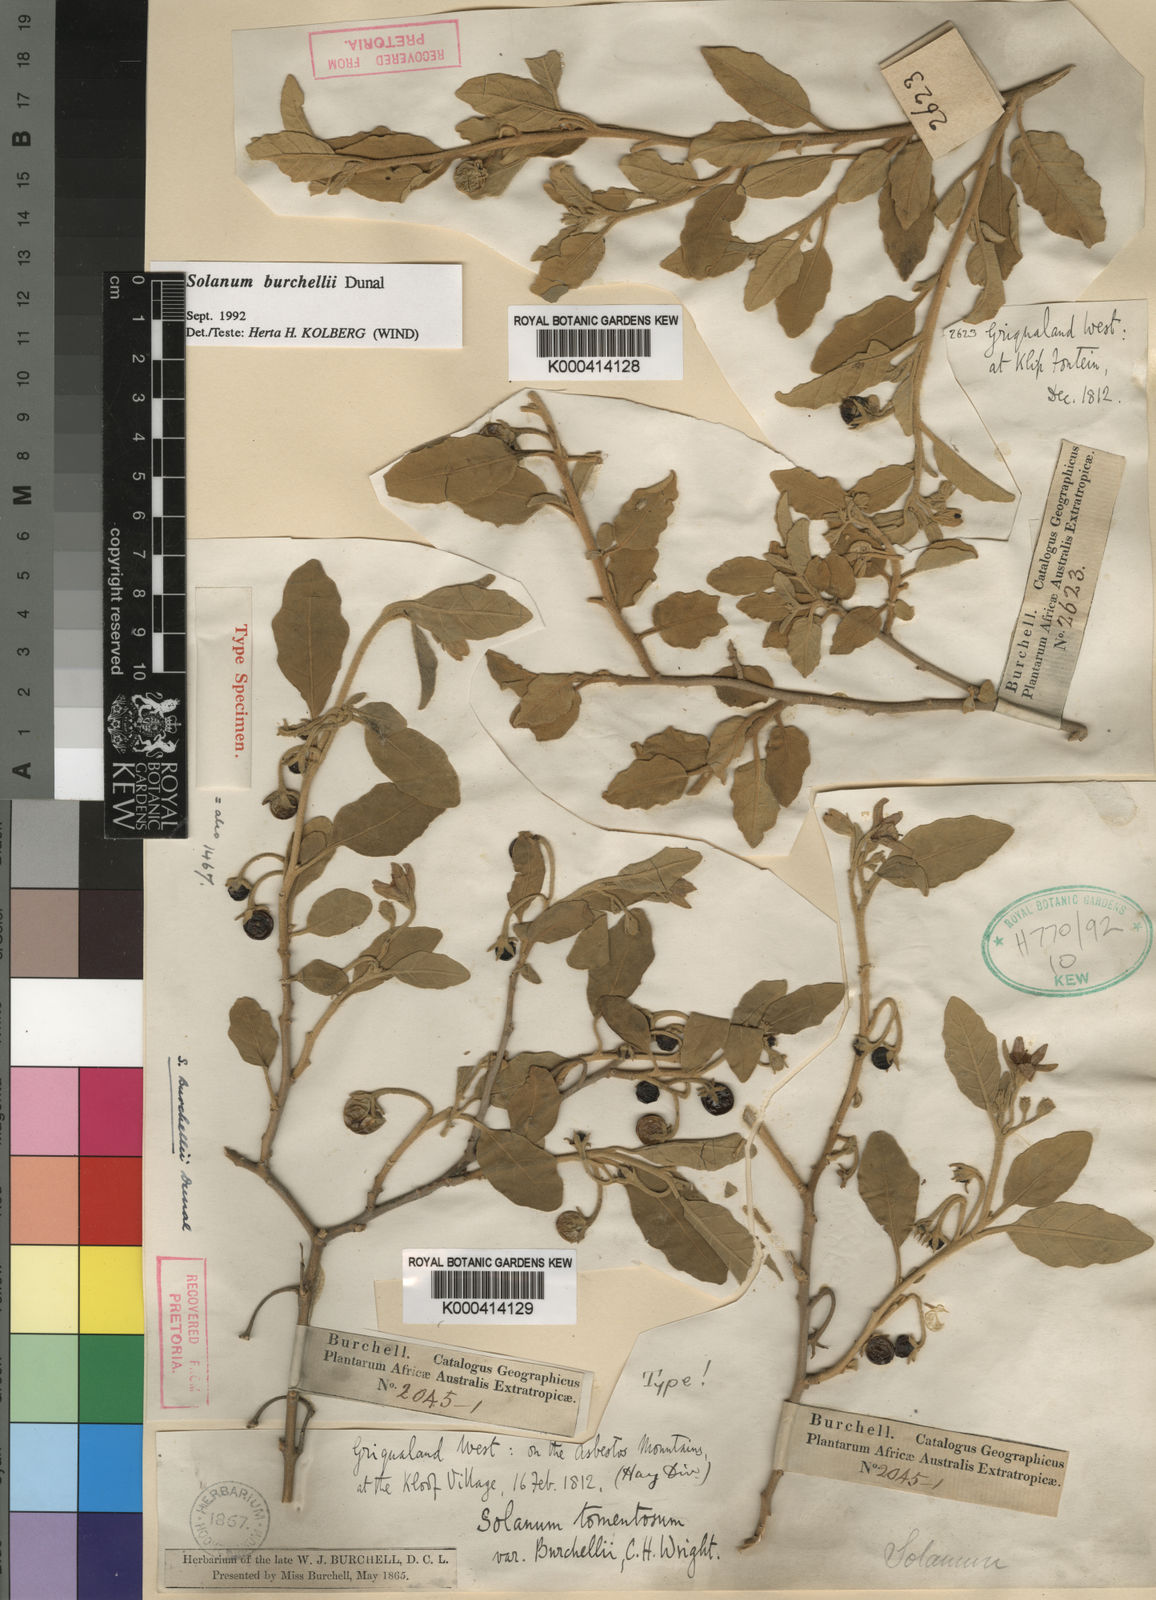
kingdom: Plantae
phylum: Tracheophyta
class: Magnoliopsida
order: Solanales
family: Solanaceae
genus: Solanum
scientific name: Solanum tomentosum
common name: Wild aubergine
